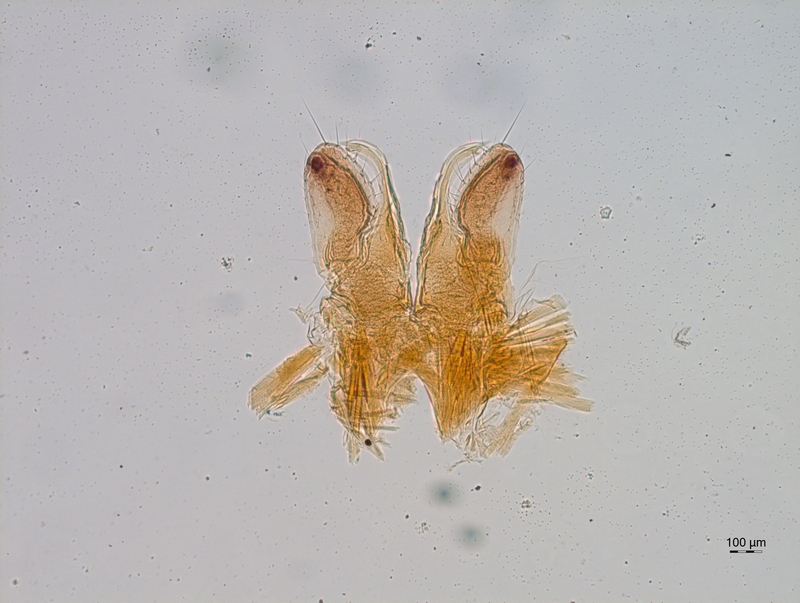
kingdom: Animalia
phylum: Arthropoda
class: Diplopoda
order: Chordeumatida
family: Chordeumatidae
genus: Mycogona
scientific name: Mycogona germanica
